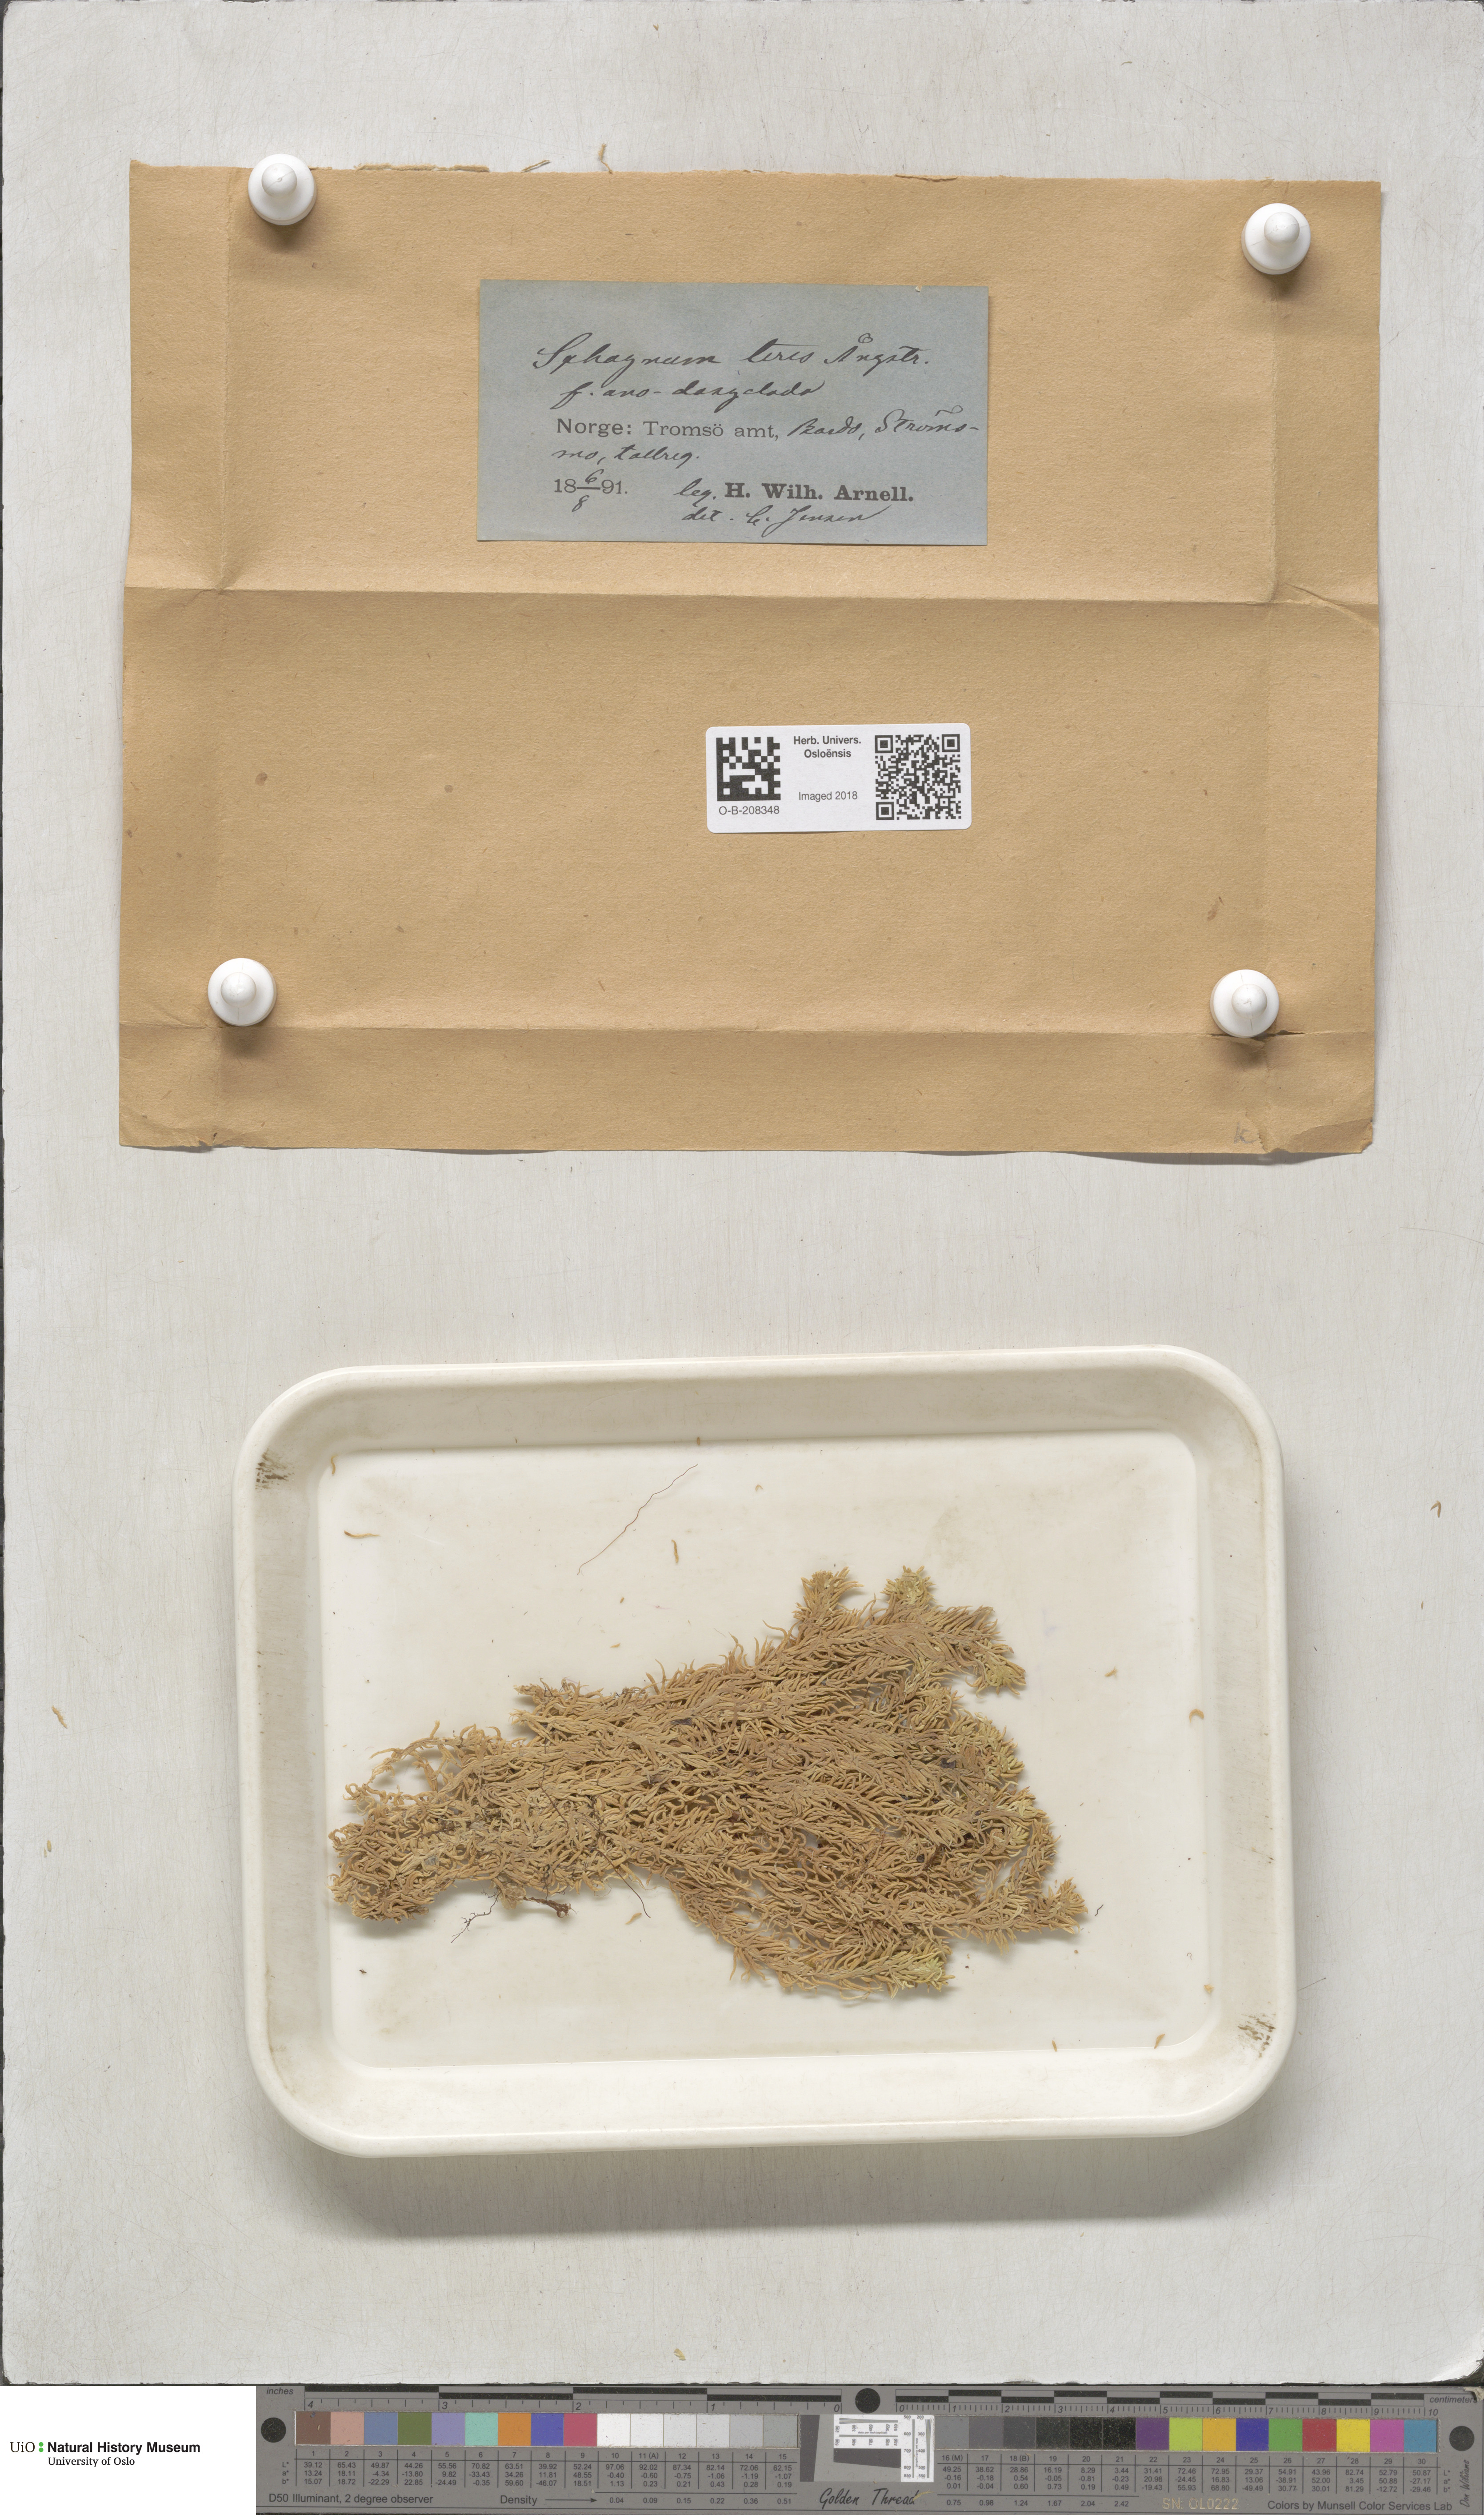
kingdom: Plantae
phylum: Bryophyta
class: Sphagnopsida
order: Sphagnales
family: Sphagnaceae
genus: Sphagnum
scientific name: Sphagnum teres
